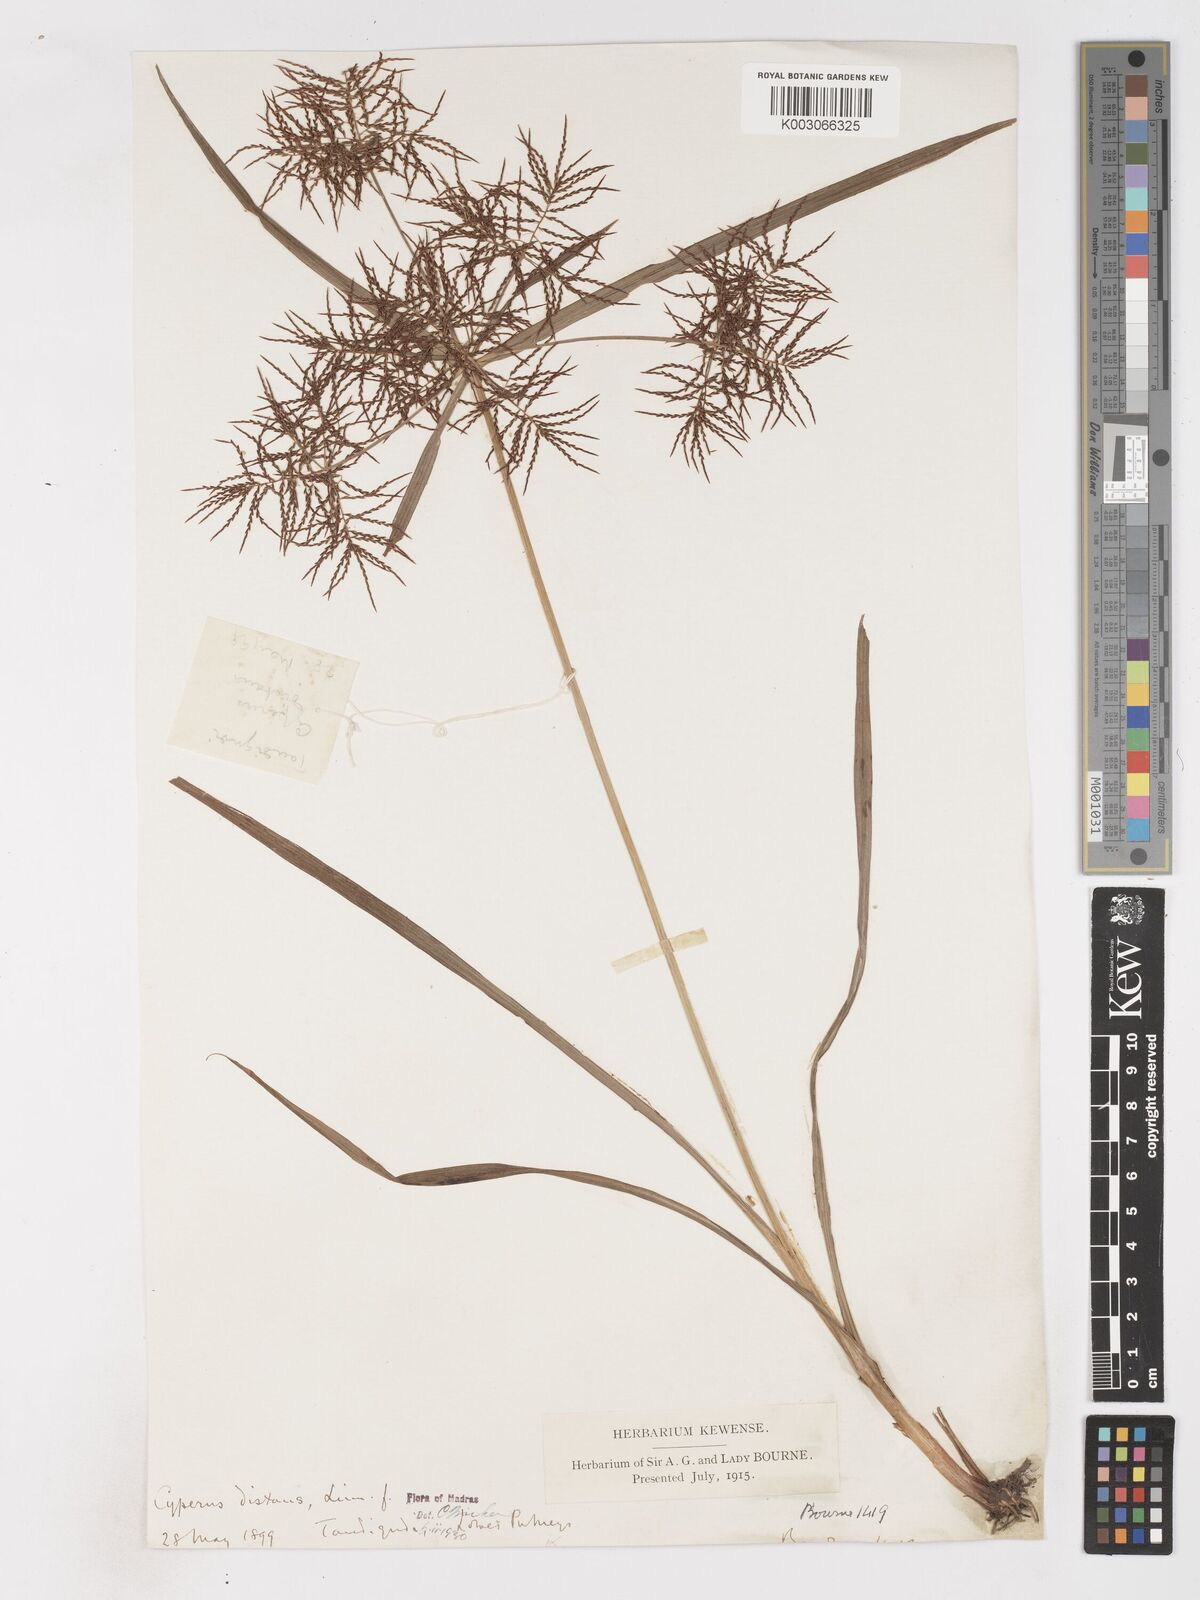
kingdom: Plantae
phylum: Tracheophyta
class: Liliopsida
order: Poales
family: Cyperaceae
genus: Cyperus
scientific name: Cyperus distans
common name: Slender cyperus
